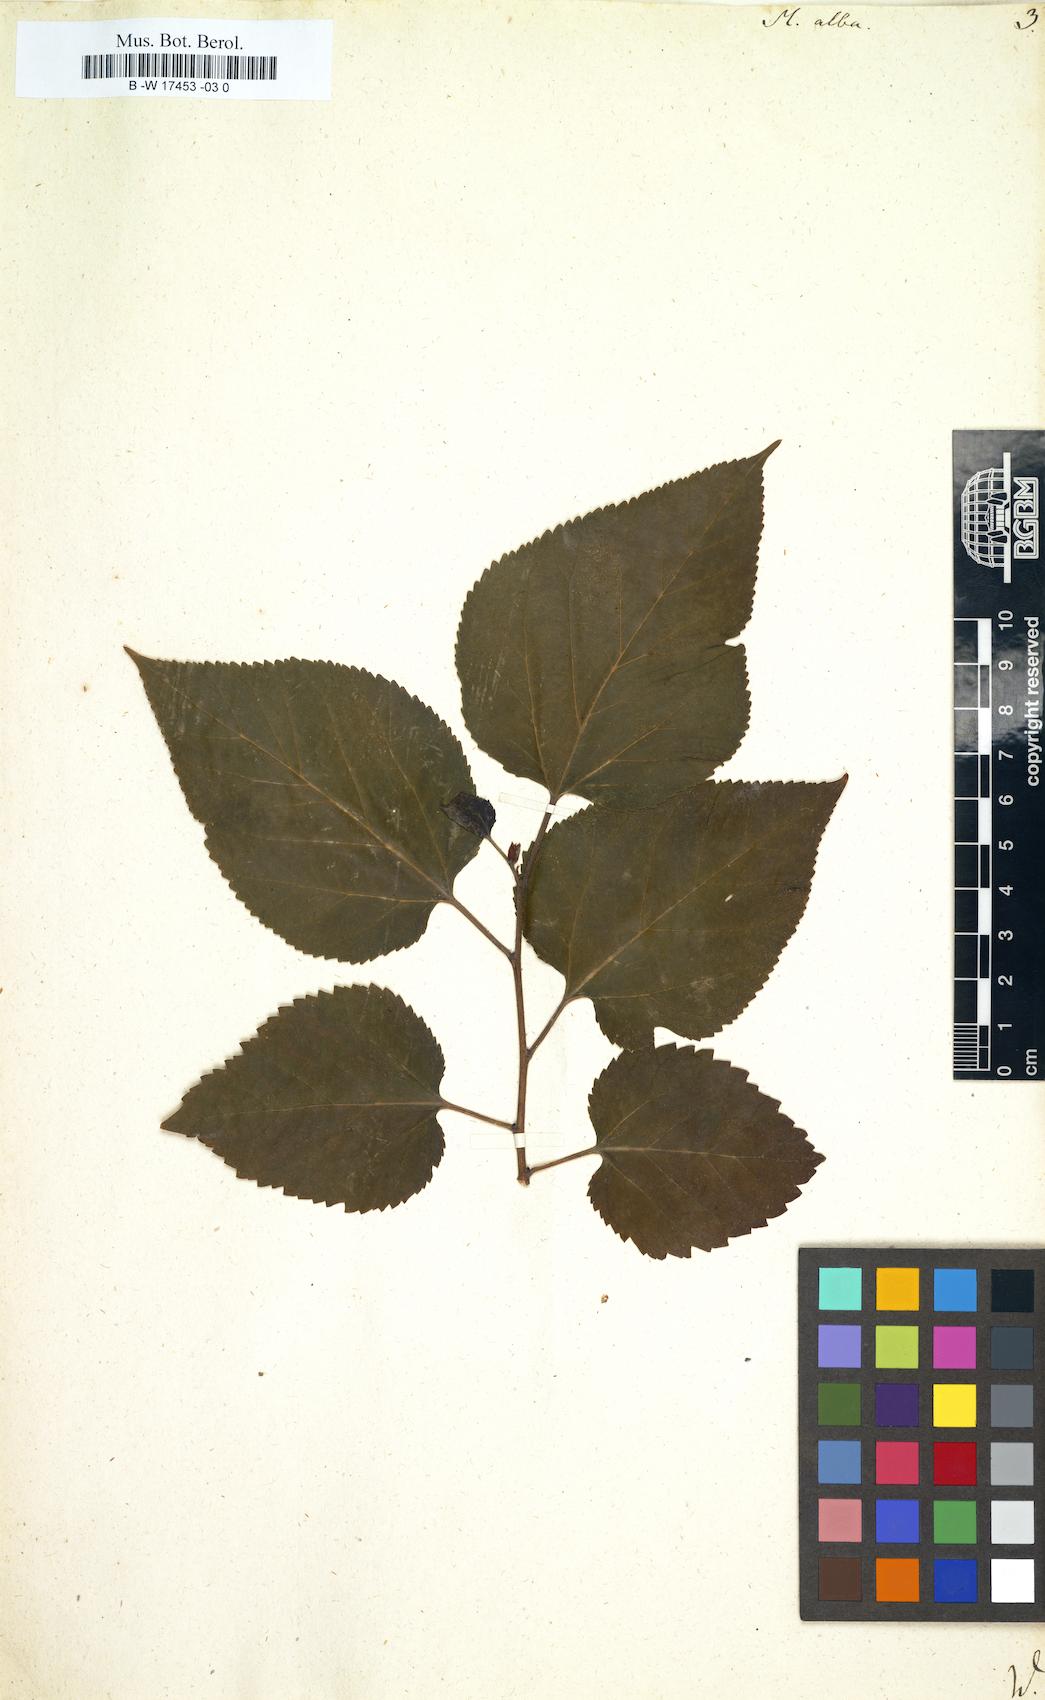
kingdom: Plantae
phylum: Tracheophyta
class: Magnoliopsida
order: Rosales
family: Moraceae
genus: Morus
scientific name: Morus alba
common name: White mulberry
